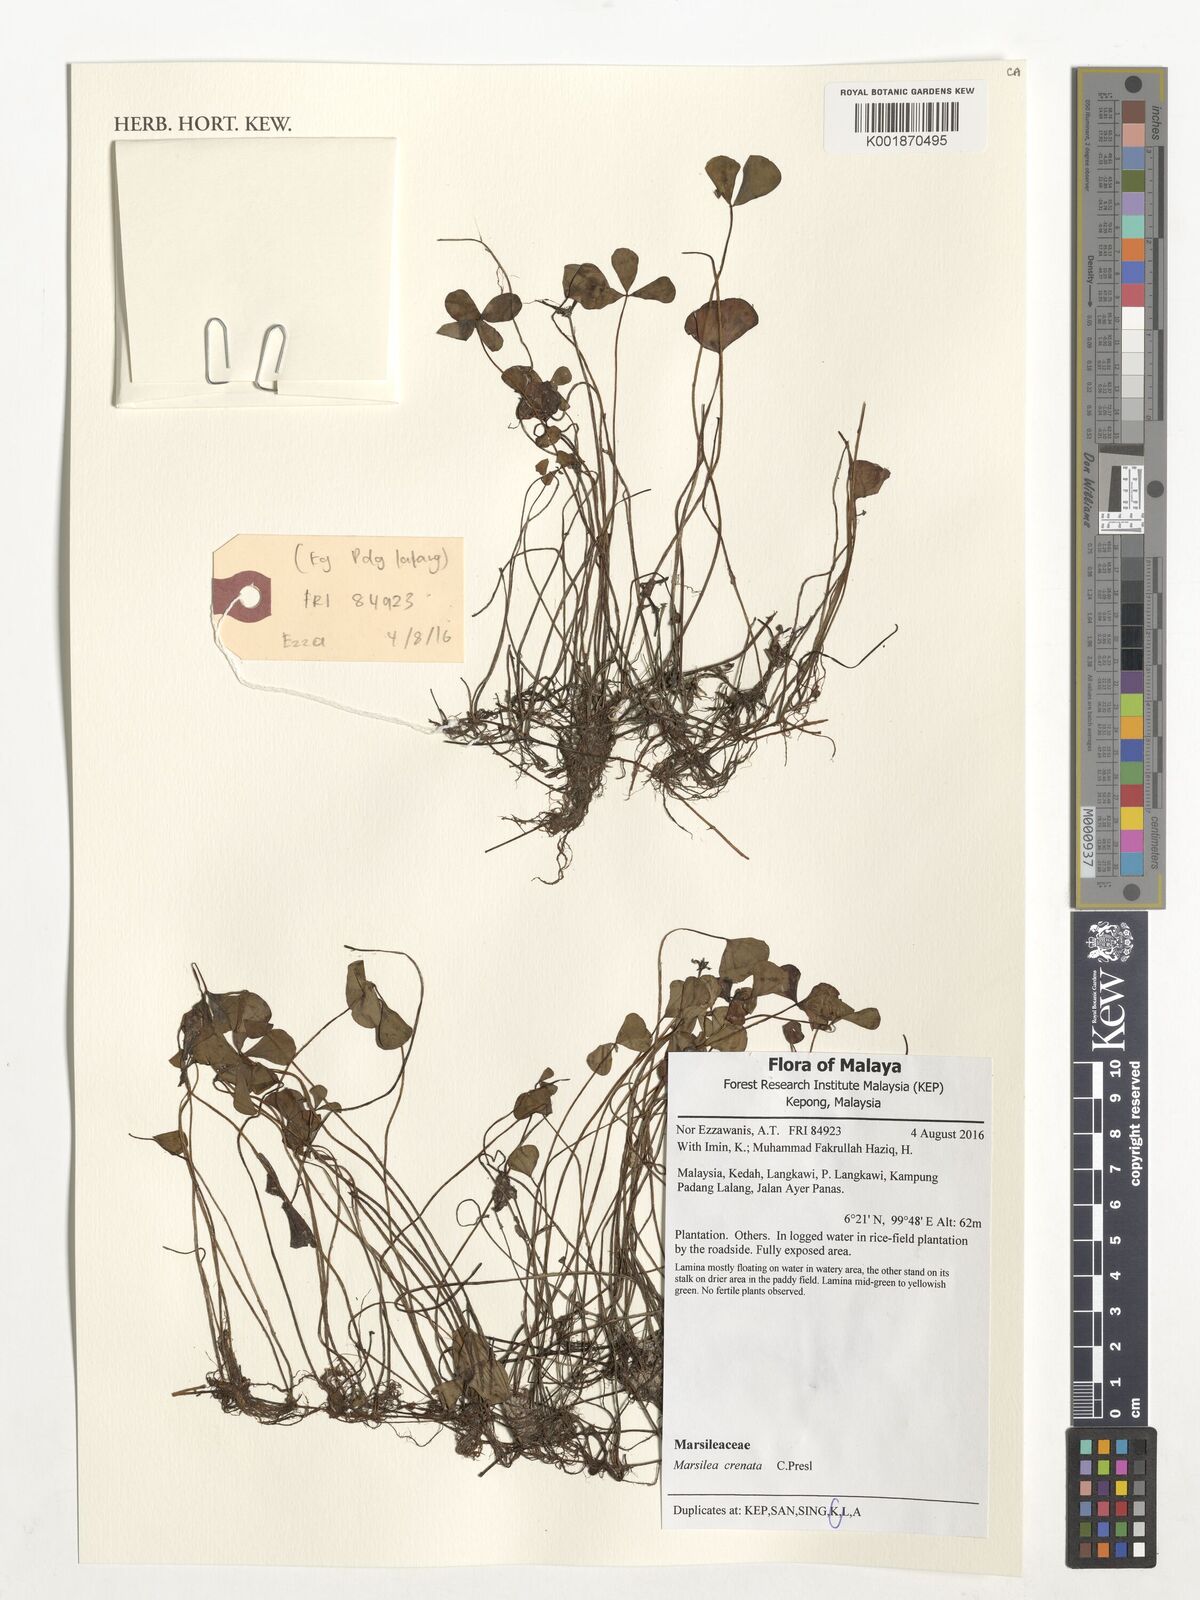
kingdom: Plantae
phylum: Tracheophyta
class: Polypodiopsida
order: Salviniales
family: Marsileaceae
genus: Marsilea
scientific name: Marsilea crenata
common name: False pepperwort
